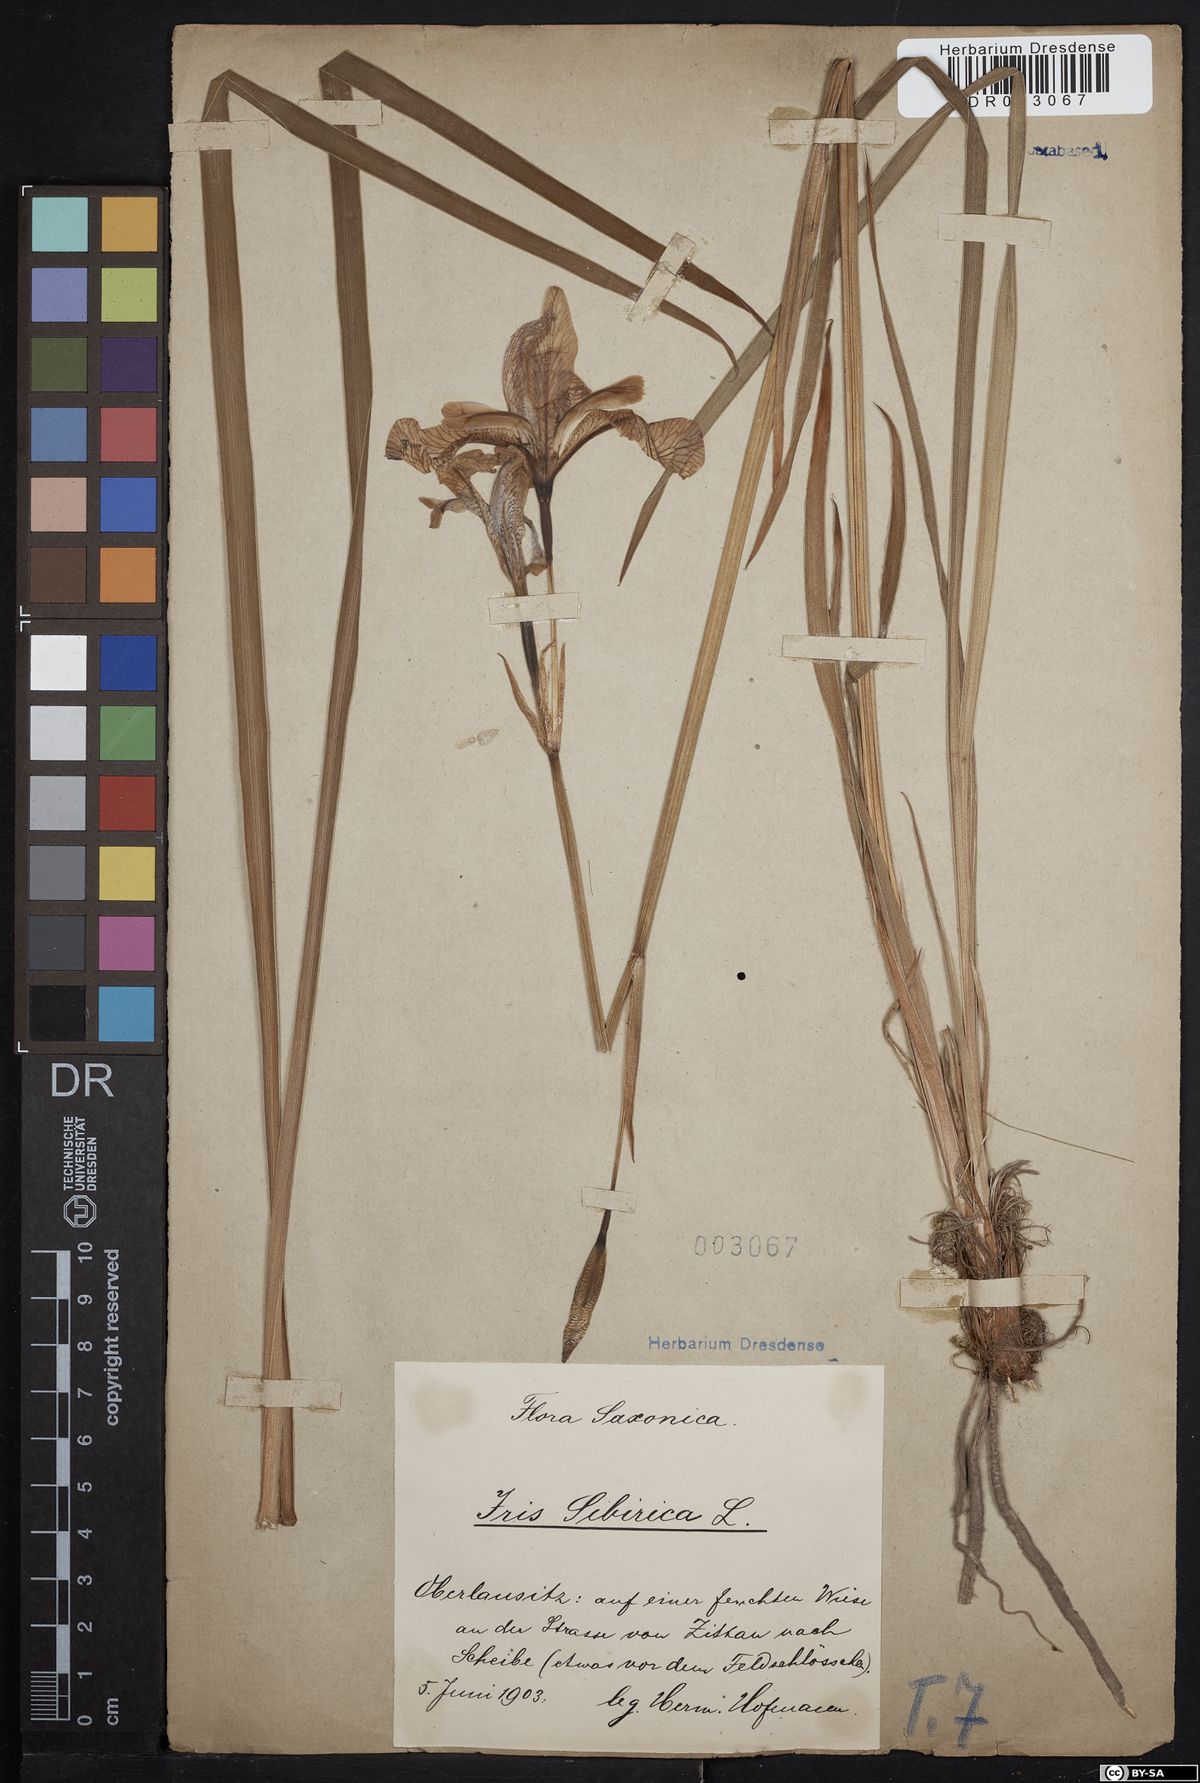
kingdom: Plantae
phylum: Tracheophyta
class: Liliopsida
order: Asparagales
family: Iridaceae
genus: Iris
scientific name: Iris sibirica
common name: Siberian iris
